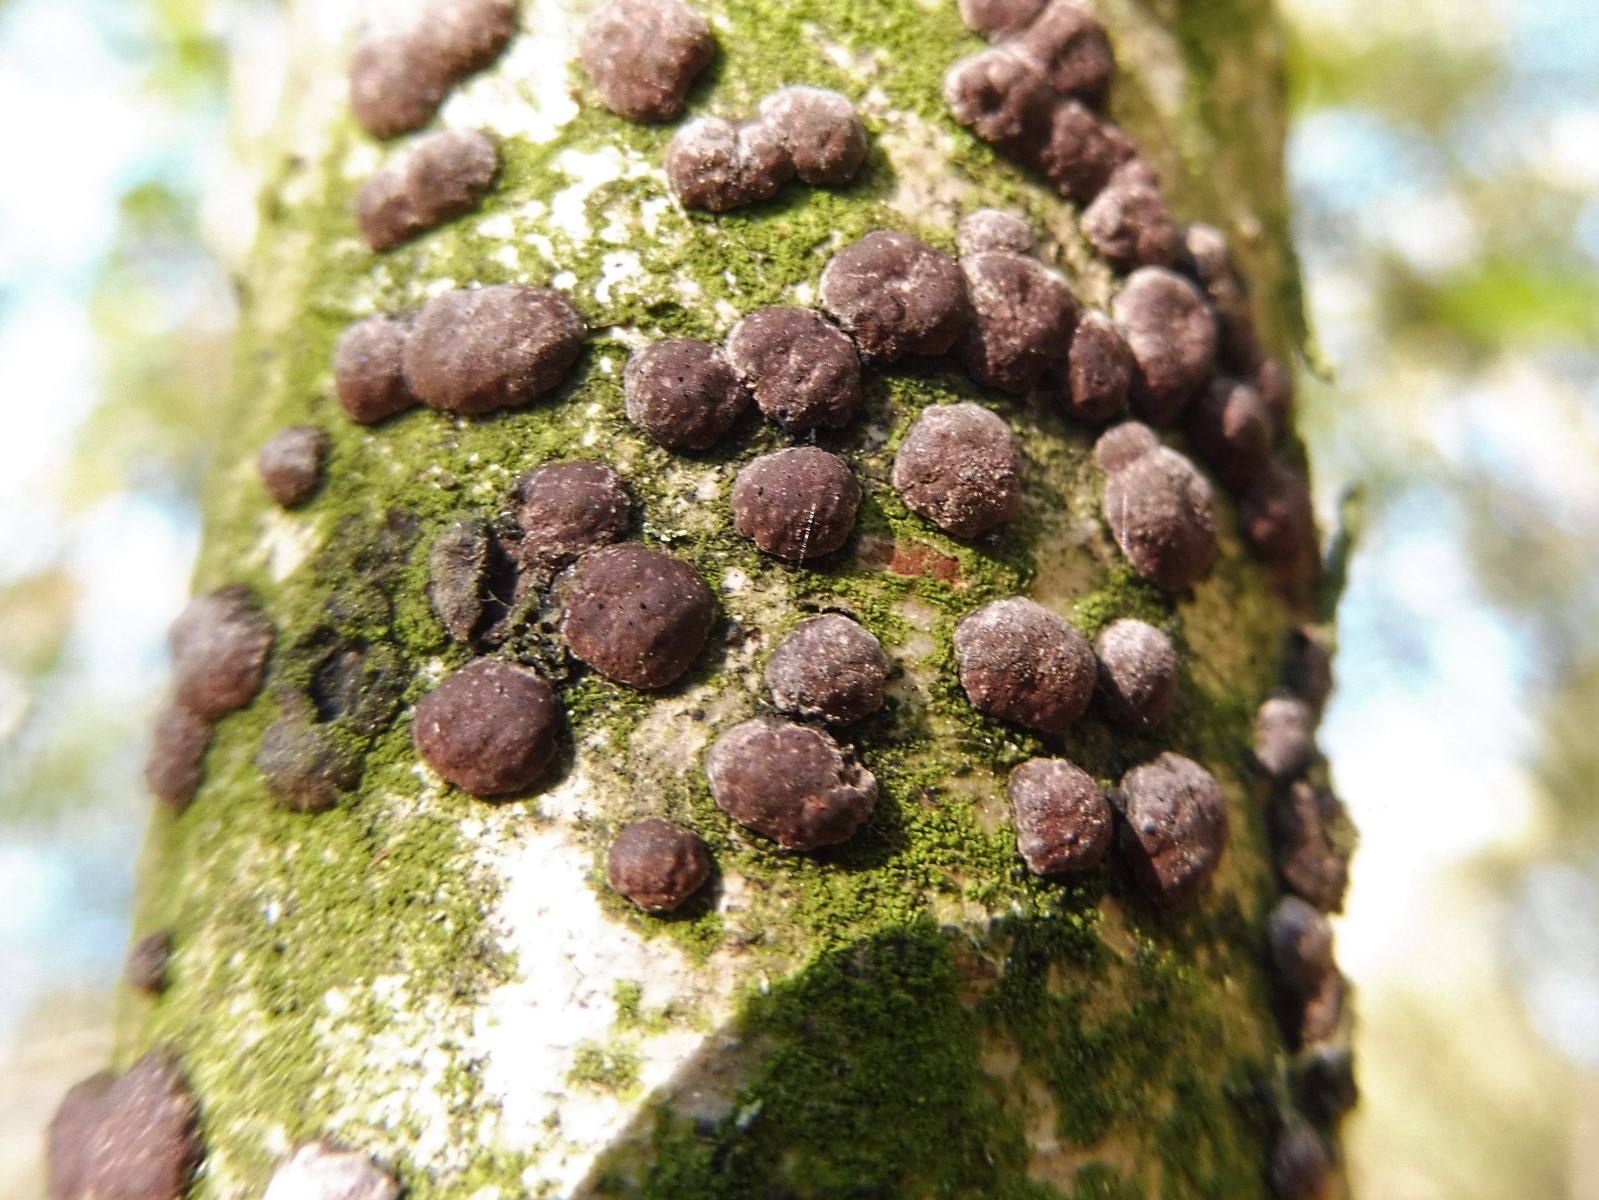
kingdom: Fungi
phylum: Ascomycota
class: Sordariomycetes
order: Xylariales
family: Hypoxylaceae
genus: Hypoxylon
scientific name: Hypoxylon fuscum
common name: kegleformet kulbær
